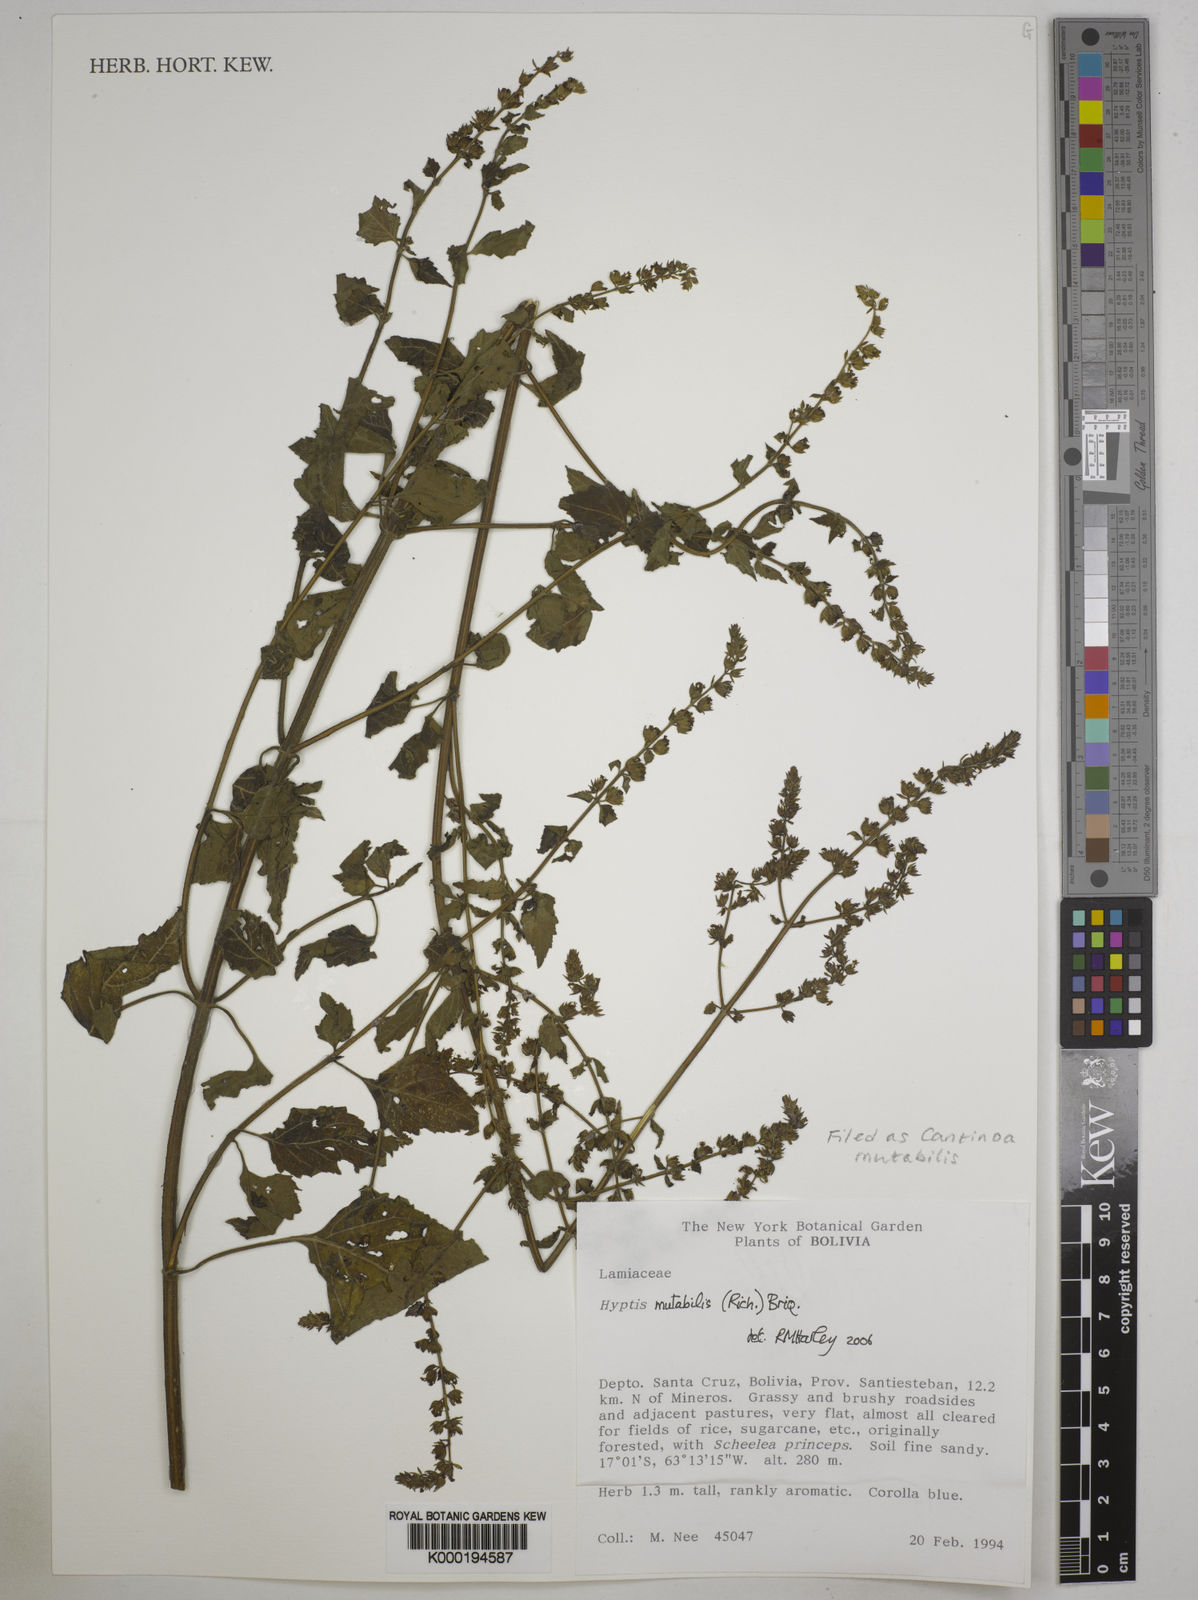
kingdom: Plantae
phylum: Tracheophyta
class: Magnoliopsida
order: Lamiales
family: Lamiaceae
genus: Cantinoa
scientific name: Cantinoa mutabilis
